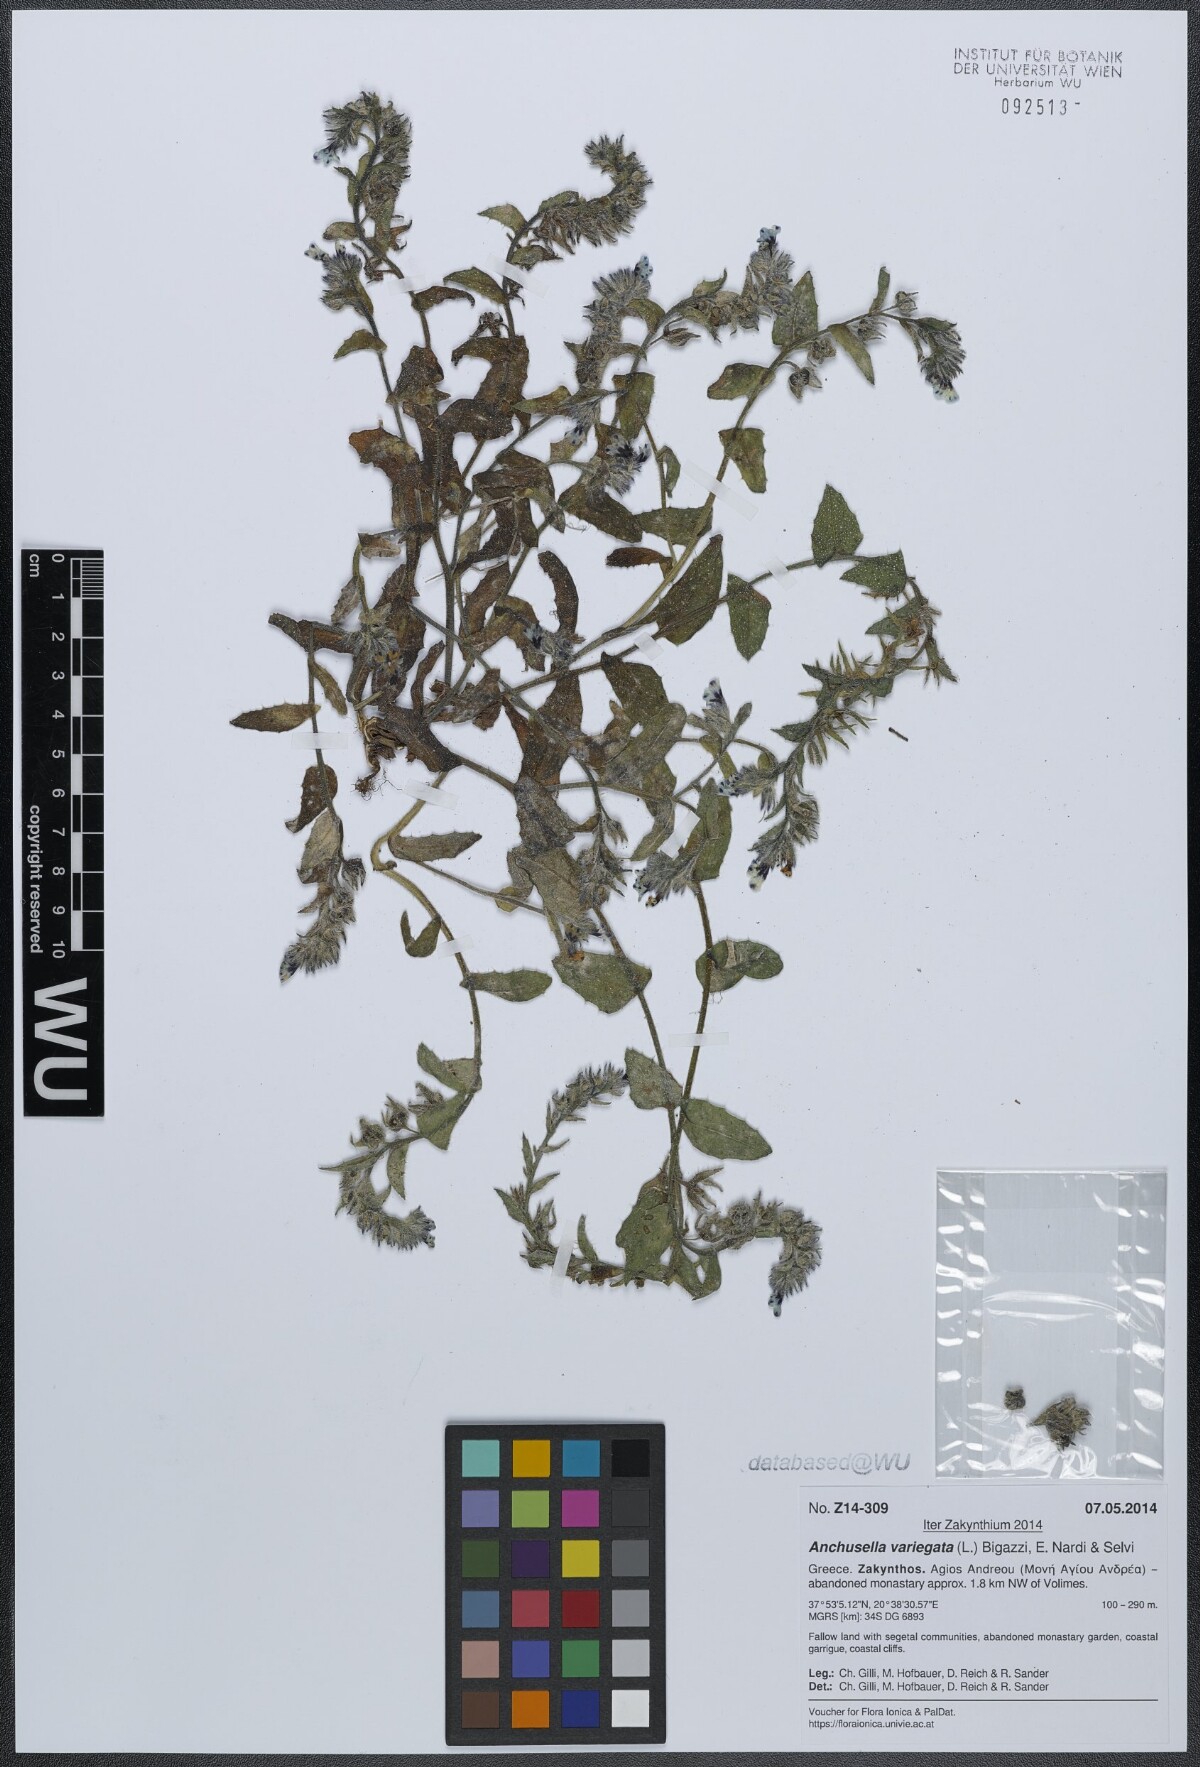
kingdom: Plantae
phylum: Tracheophyta
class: Magnoliopsida
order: Boraginales
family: Boraginaceae
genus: Anchusella
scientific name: Anchusella variegata
